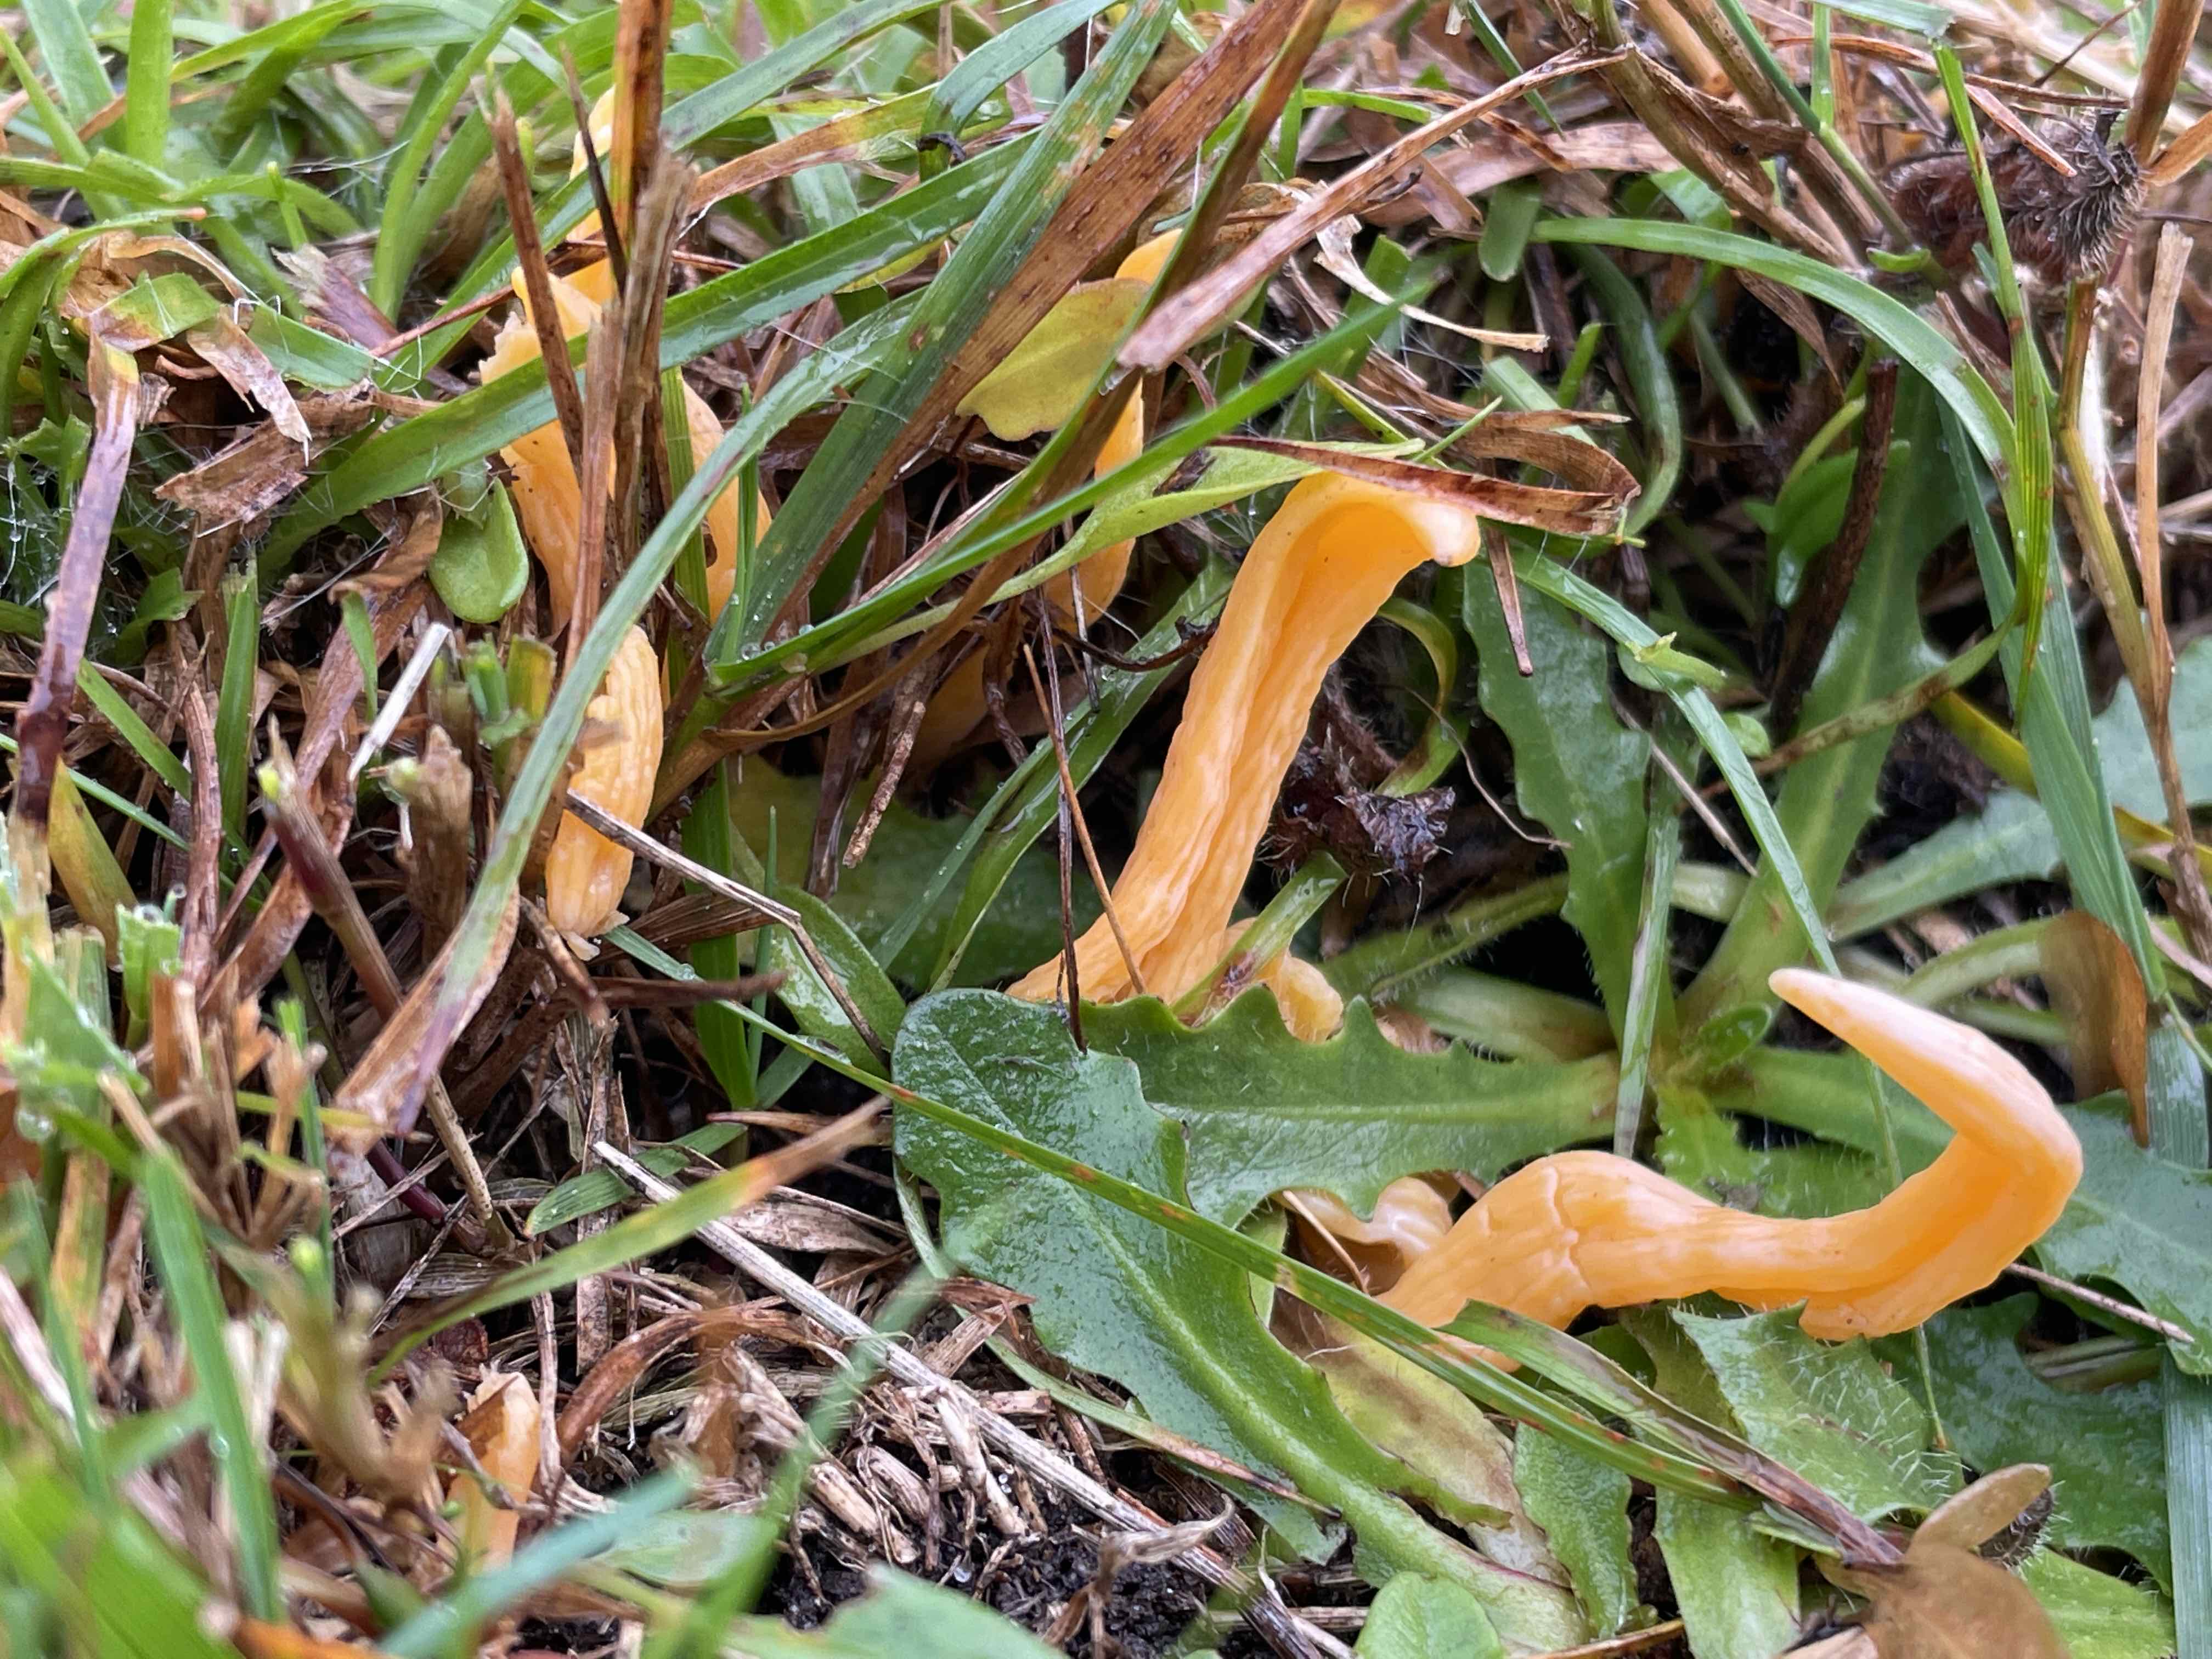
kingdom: Fungi
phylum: Basidiomycota
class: Agaricomycetes
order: Agaricales
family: Clavariaceae
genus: Clavulinopsis
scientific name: Clavulinopsis luteoalba
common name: abrikos-køllesvamp
